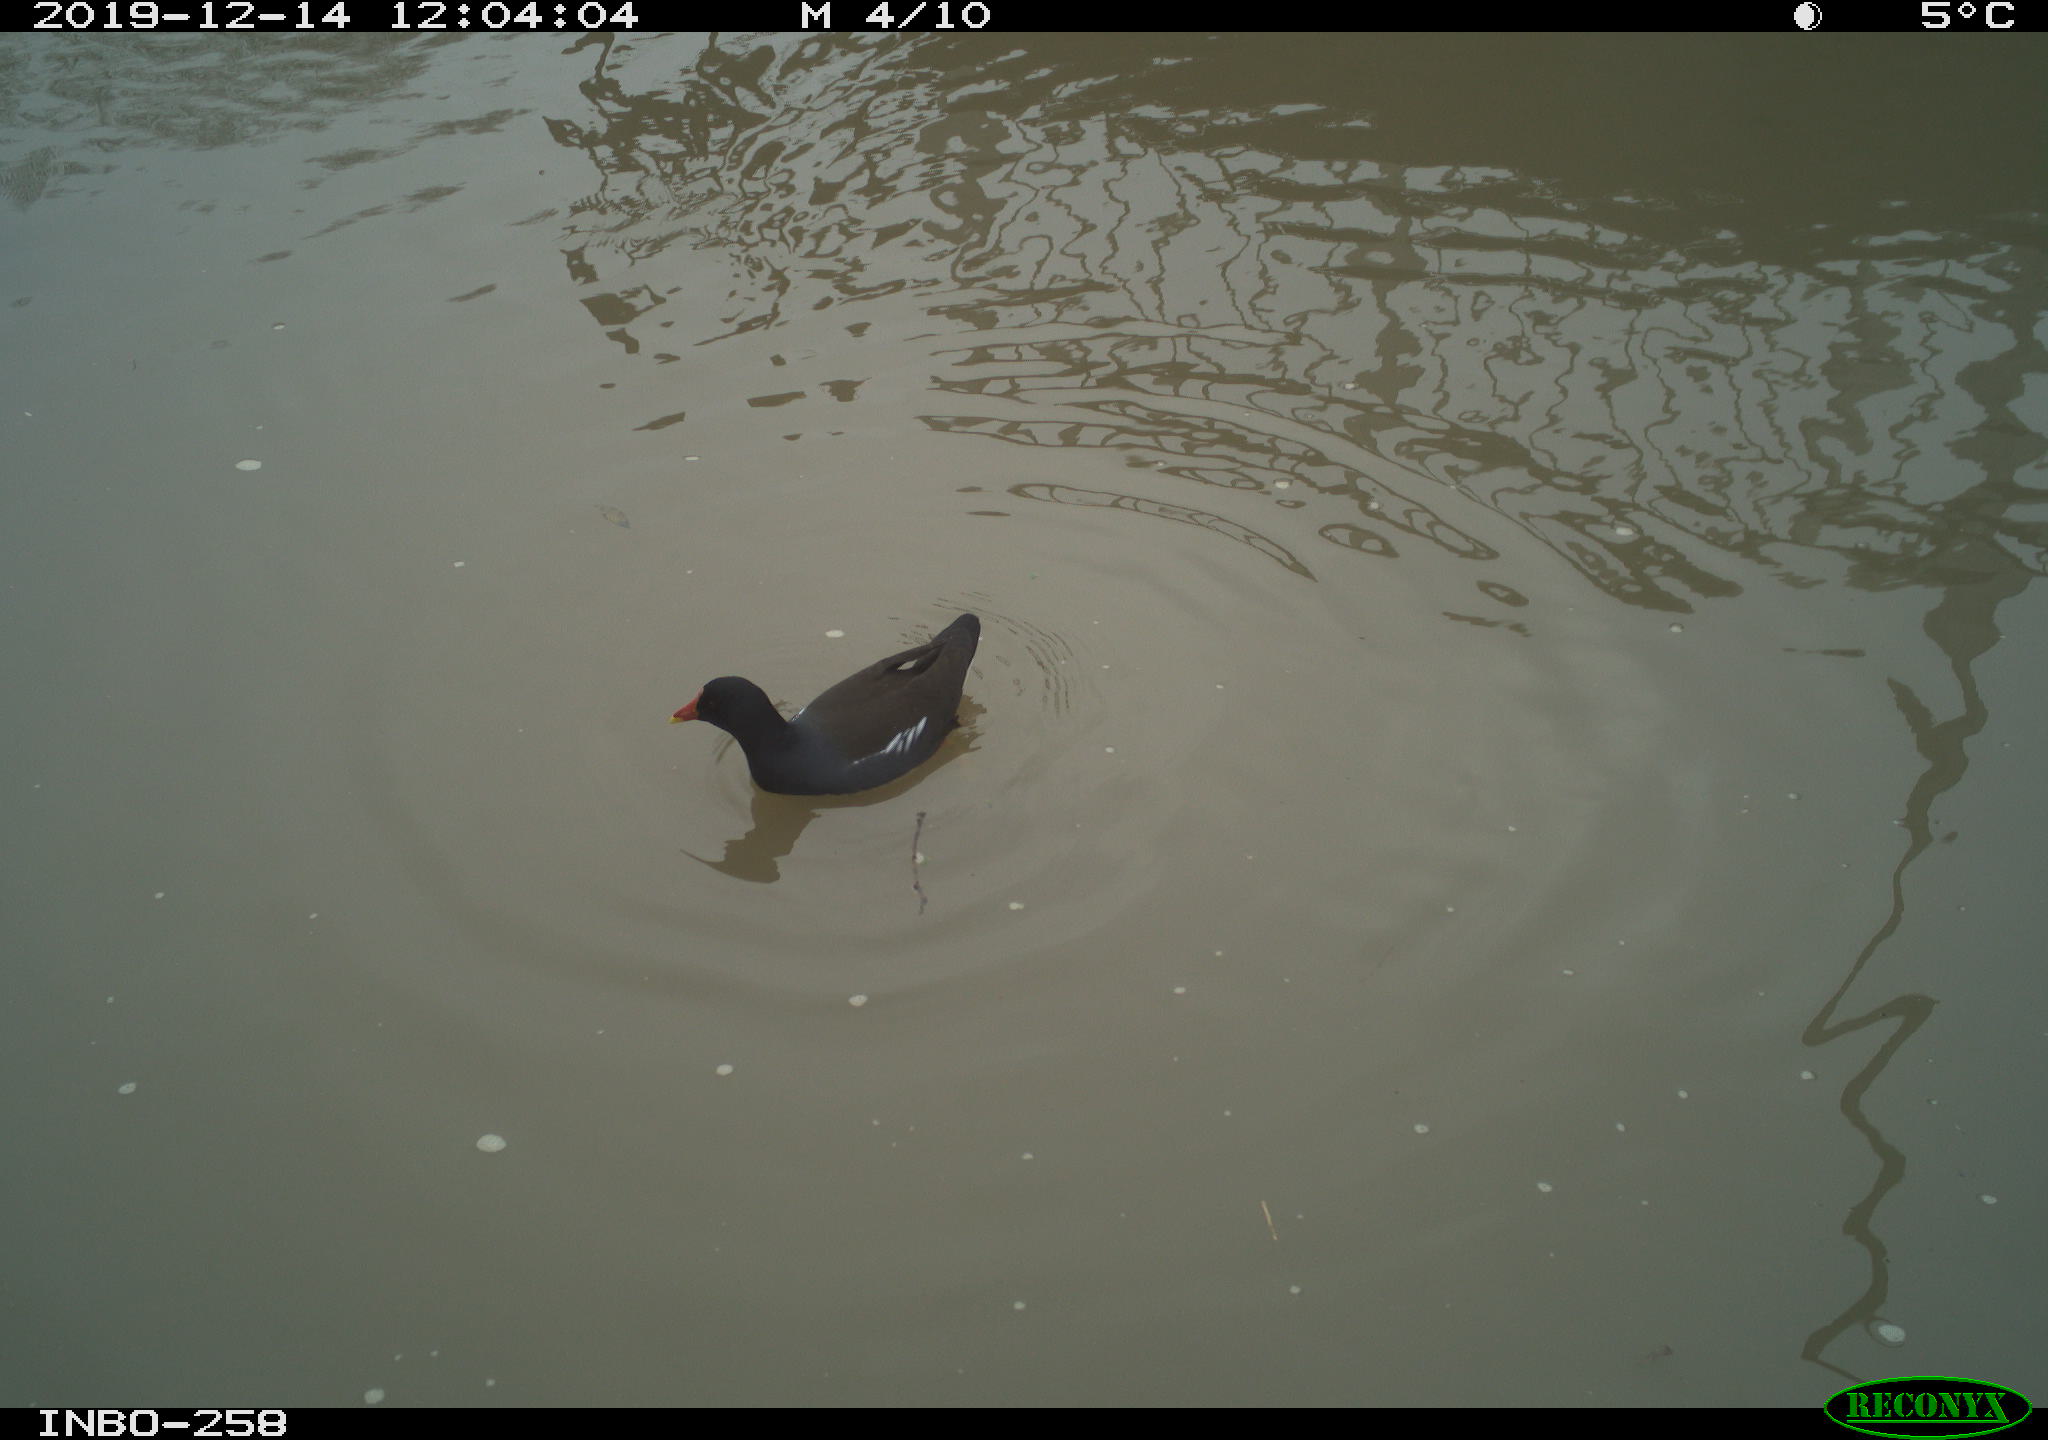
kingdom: Animalia
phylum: Chordata
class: Aves
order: Gruiformes
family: Rallidae
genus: Gallinula
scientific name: Gallinula chloropus
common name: Common moorhen
